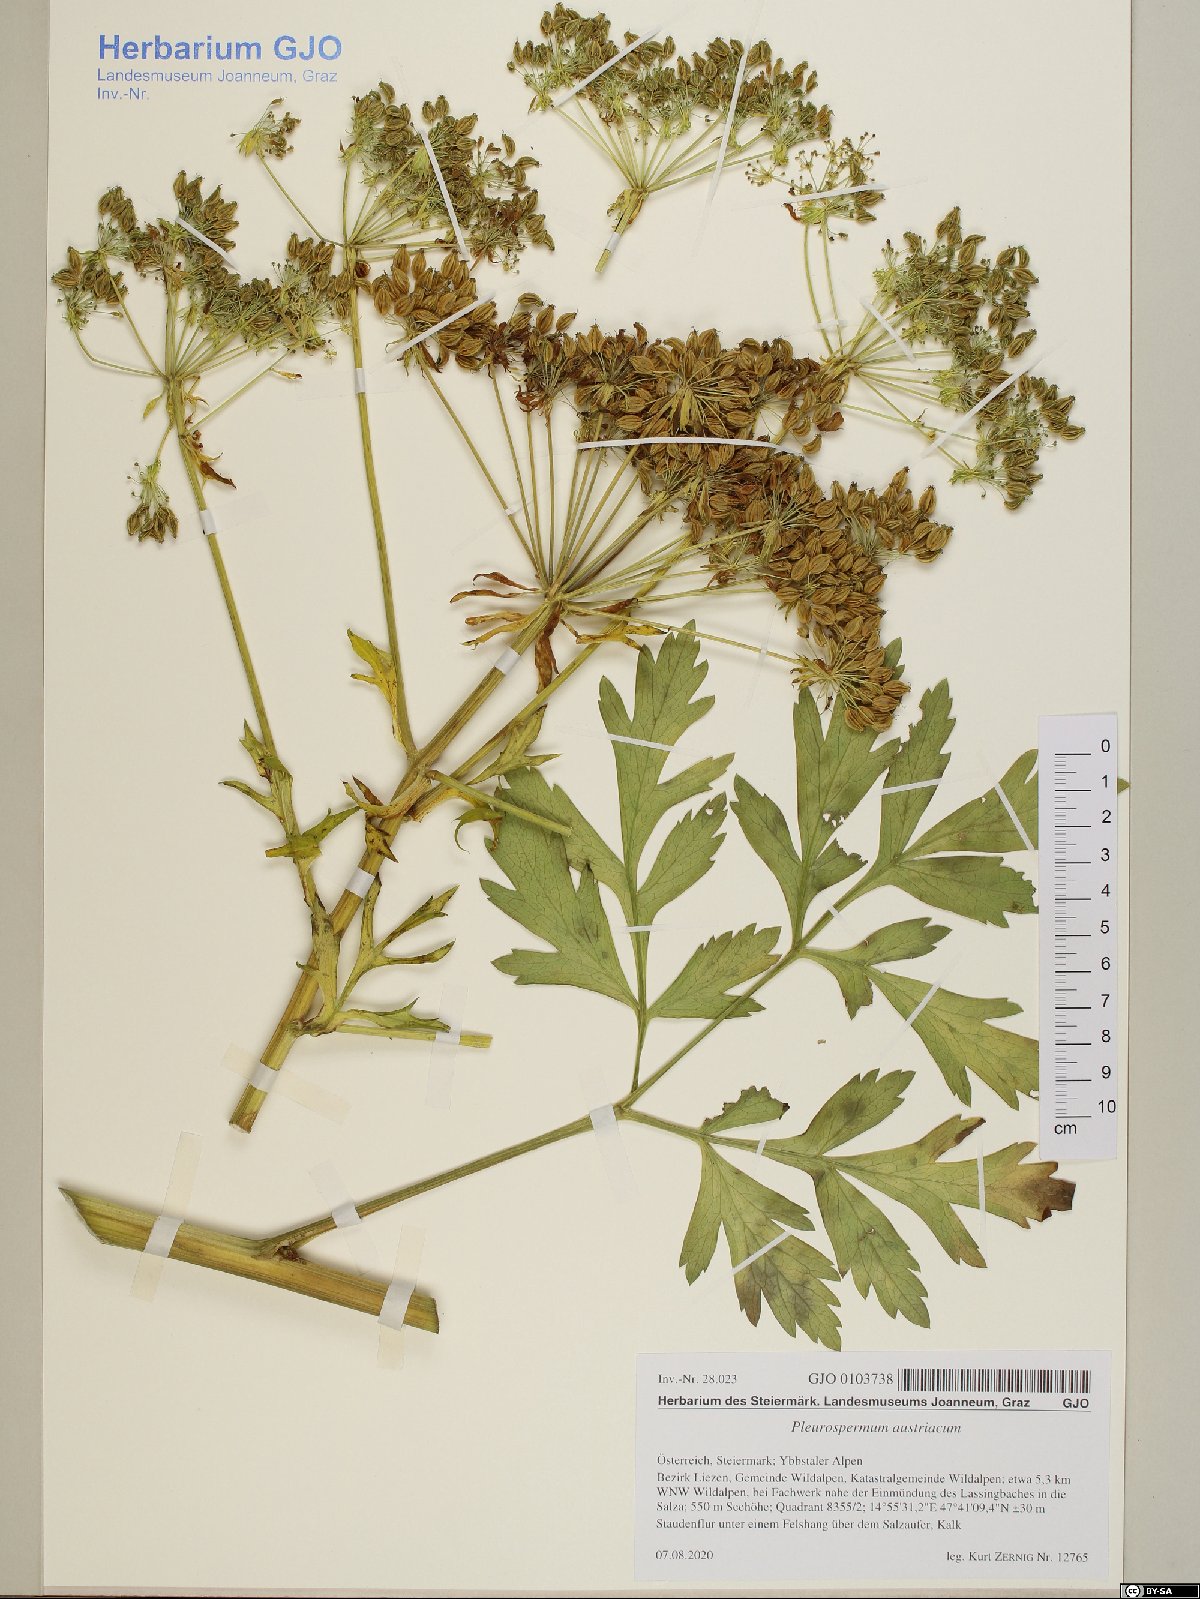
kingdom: Plantae
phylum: Tracheophyta
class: Magnoliopsida
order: Apiales
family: Apiaceae
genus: Pleurospermum
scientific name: Pleurospermum austriacum
